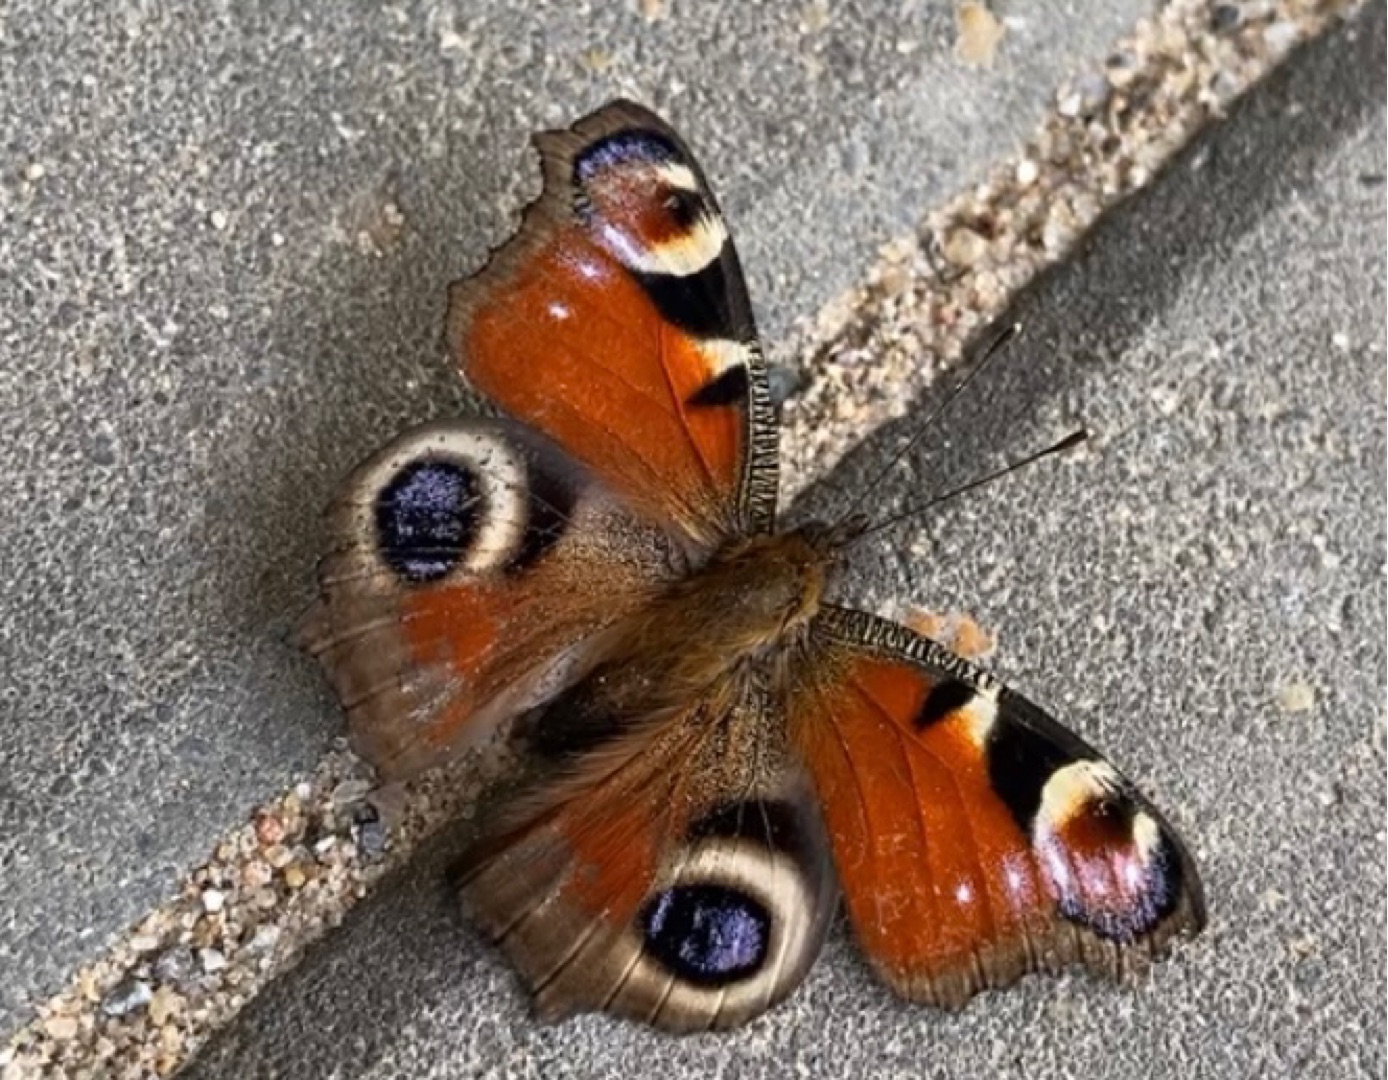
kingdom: Animalia
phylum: Arthropoda
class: Insecta
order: Lepidoptera
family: Nymphalidae
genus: Aglais
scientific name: Aglais io
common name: Dagpåfugleøje
